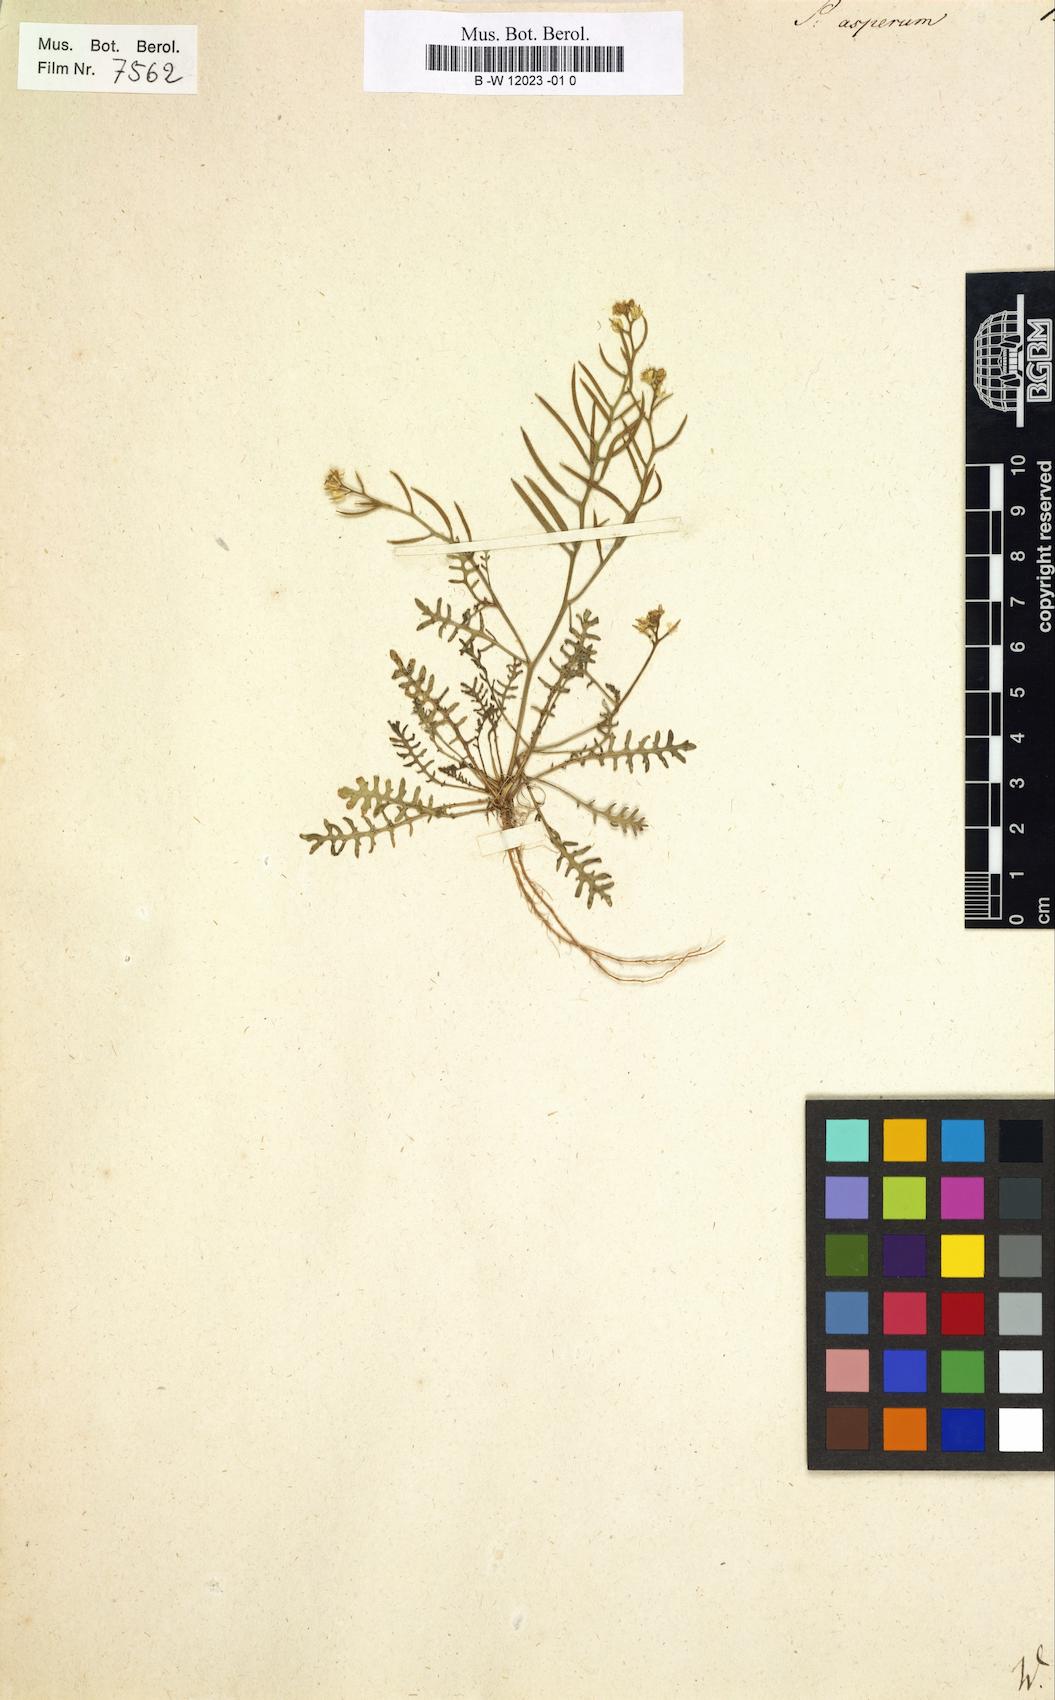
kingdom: Plantae
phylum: Tracheophyta
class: Magnoliopsida
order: Brassicales
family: Brassicaceae
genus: Sisymbrella
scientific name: Sisymbrella aspera
